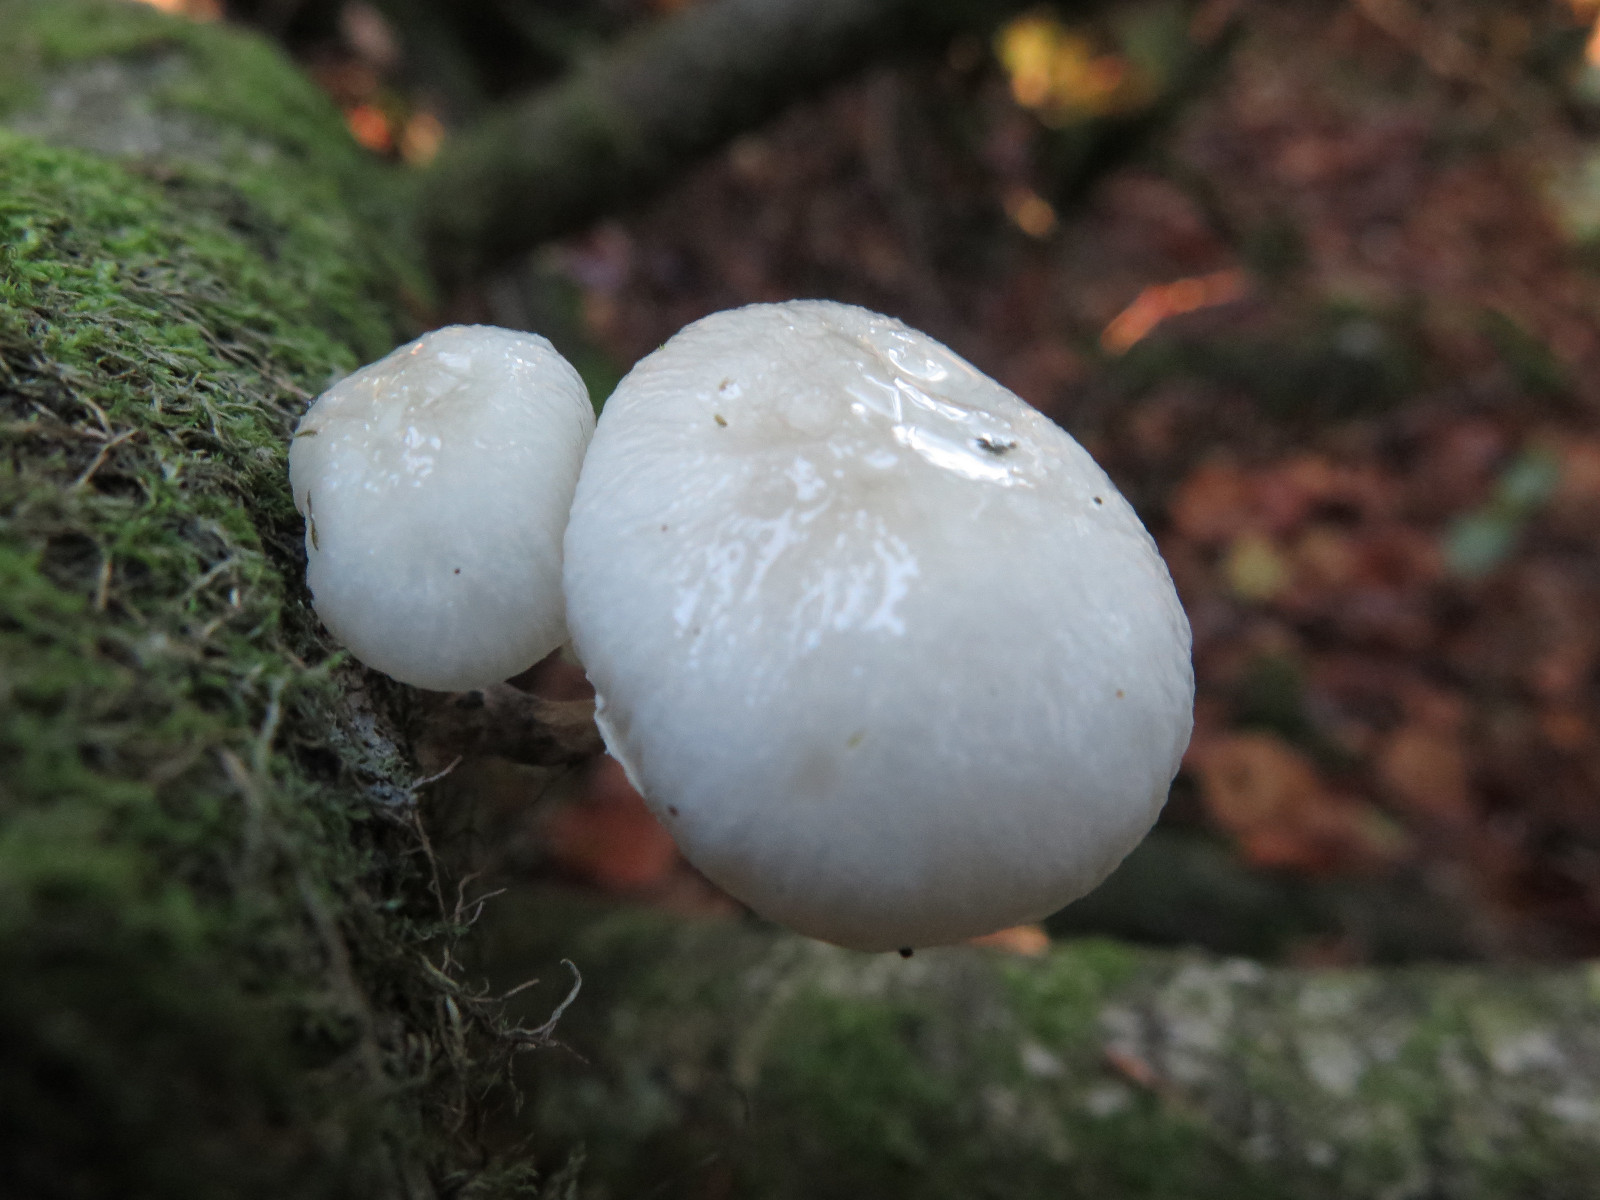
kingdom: Fungi
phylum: Basidiomycota
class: Agaricomycetes
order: Agaricales
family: Physalacriaceae
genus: Mucidula
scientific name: Mucidula mucida
